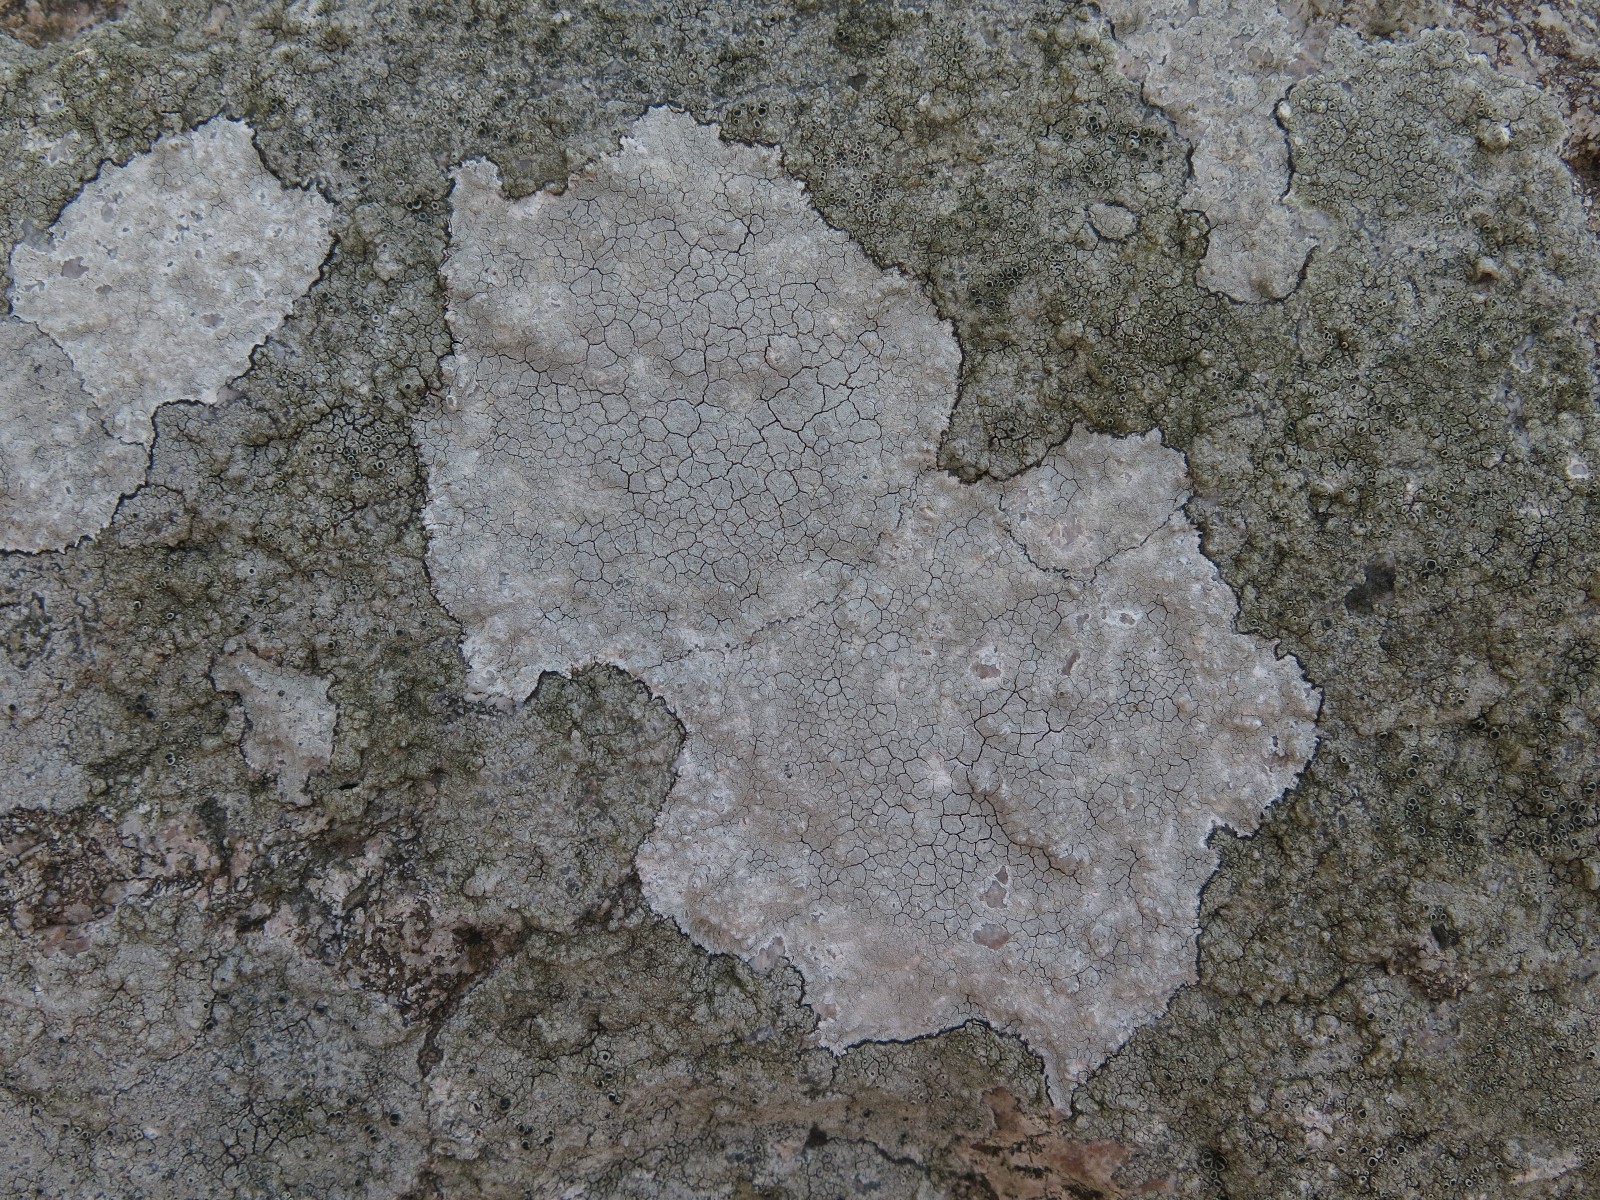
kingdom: Fungi
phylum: Ascomycota
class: Lecanoromycetes
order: Lecanorales
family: Lecanoraceae
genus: Glaucomaria
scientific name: Glaucomaria rupicola
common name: stengærde-kantskivelav
